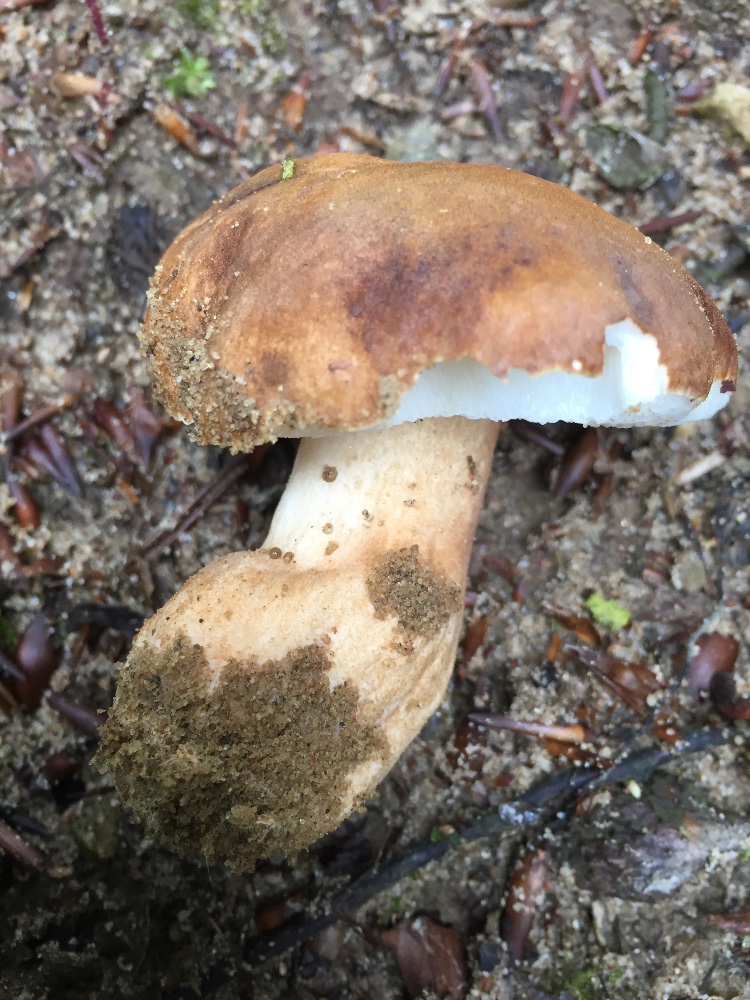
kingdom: Fungi
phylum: Basidiomycota
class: Agaricomycetes
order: Boletales
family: Gyroporaceae
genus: Gyroporus
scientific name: Gyroporus castaneus
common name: kastanie-kammerrørhat
